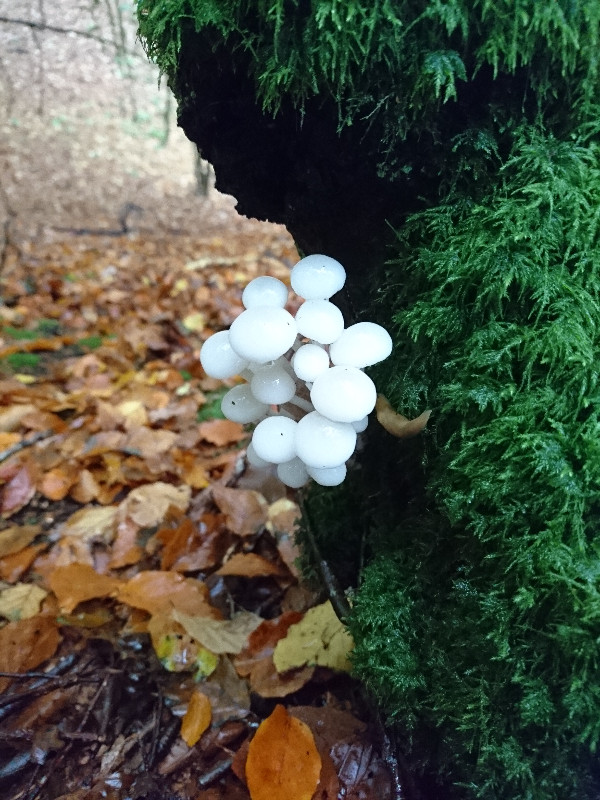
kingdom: Fungi
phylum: Basidiomycota
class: Agaricomycetes
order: Agaricales
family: Physalacriaceae
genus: Mucidula
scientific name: Mucidula mucida
